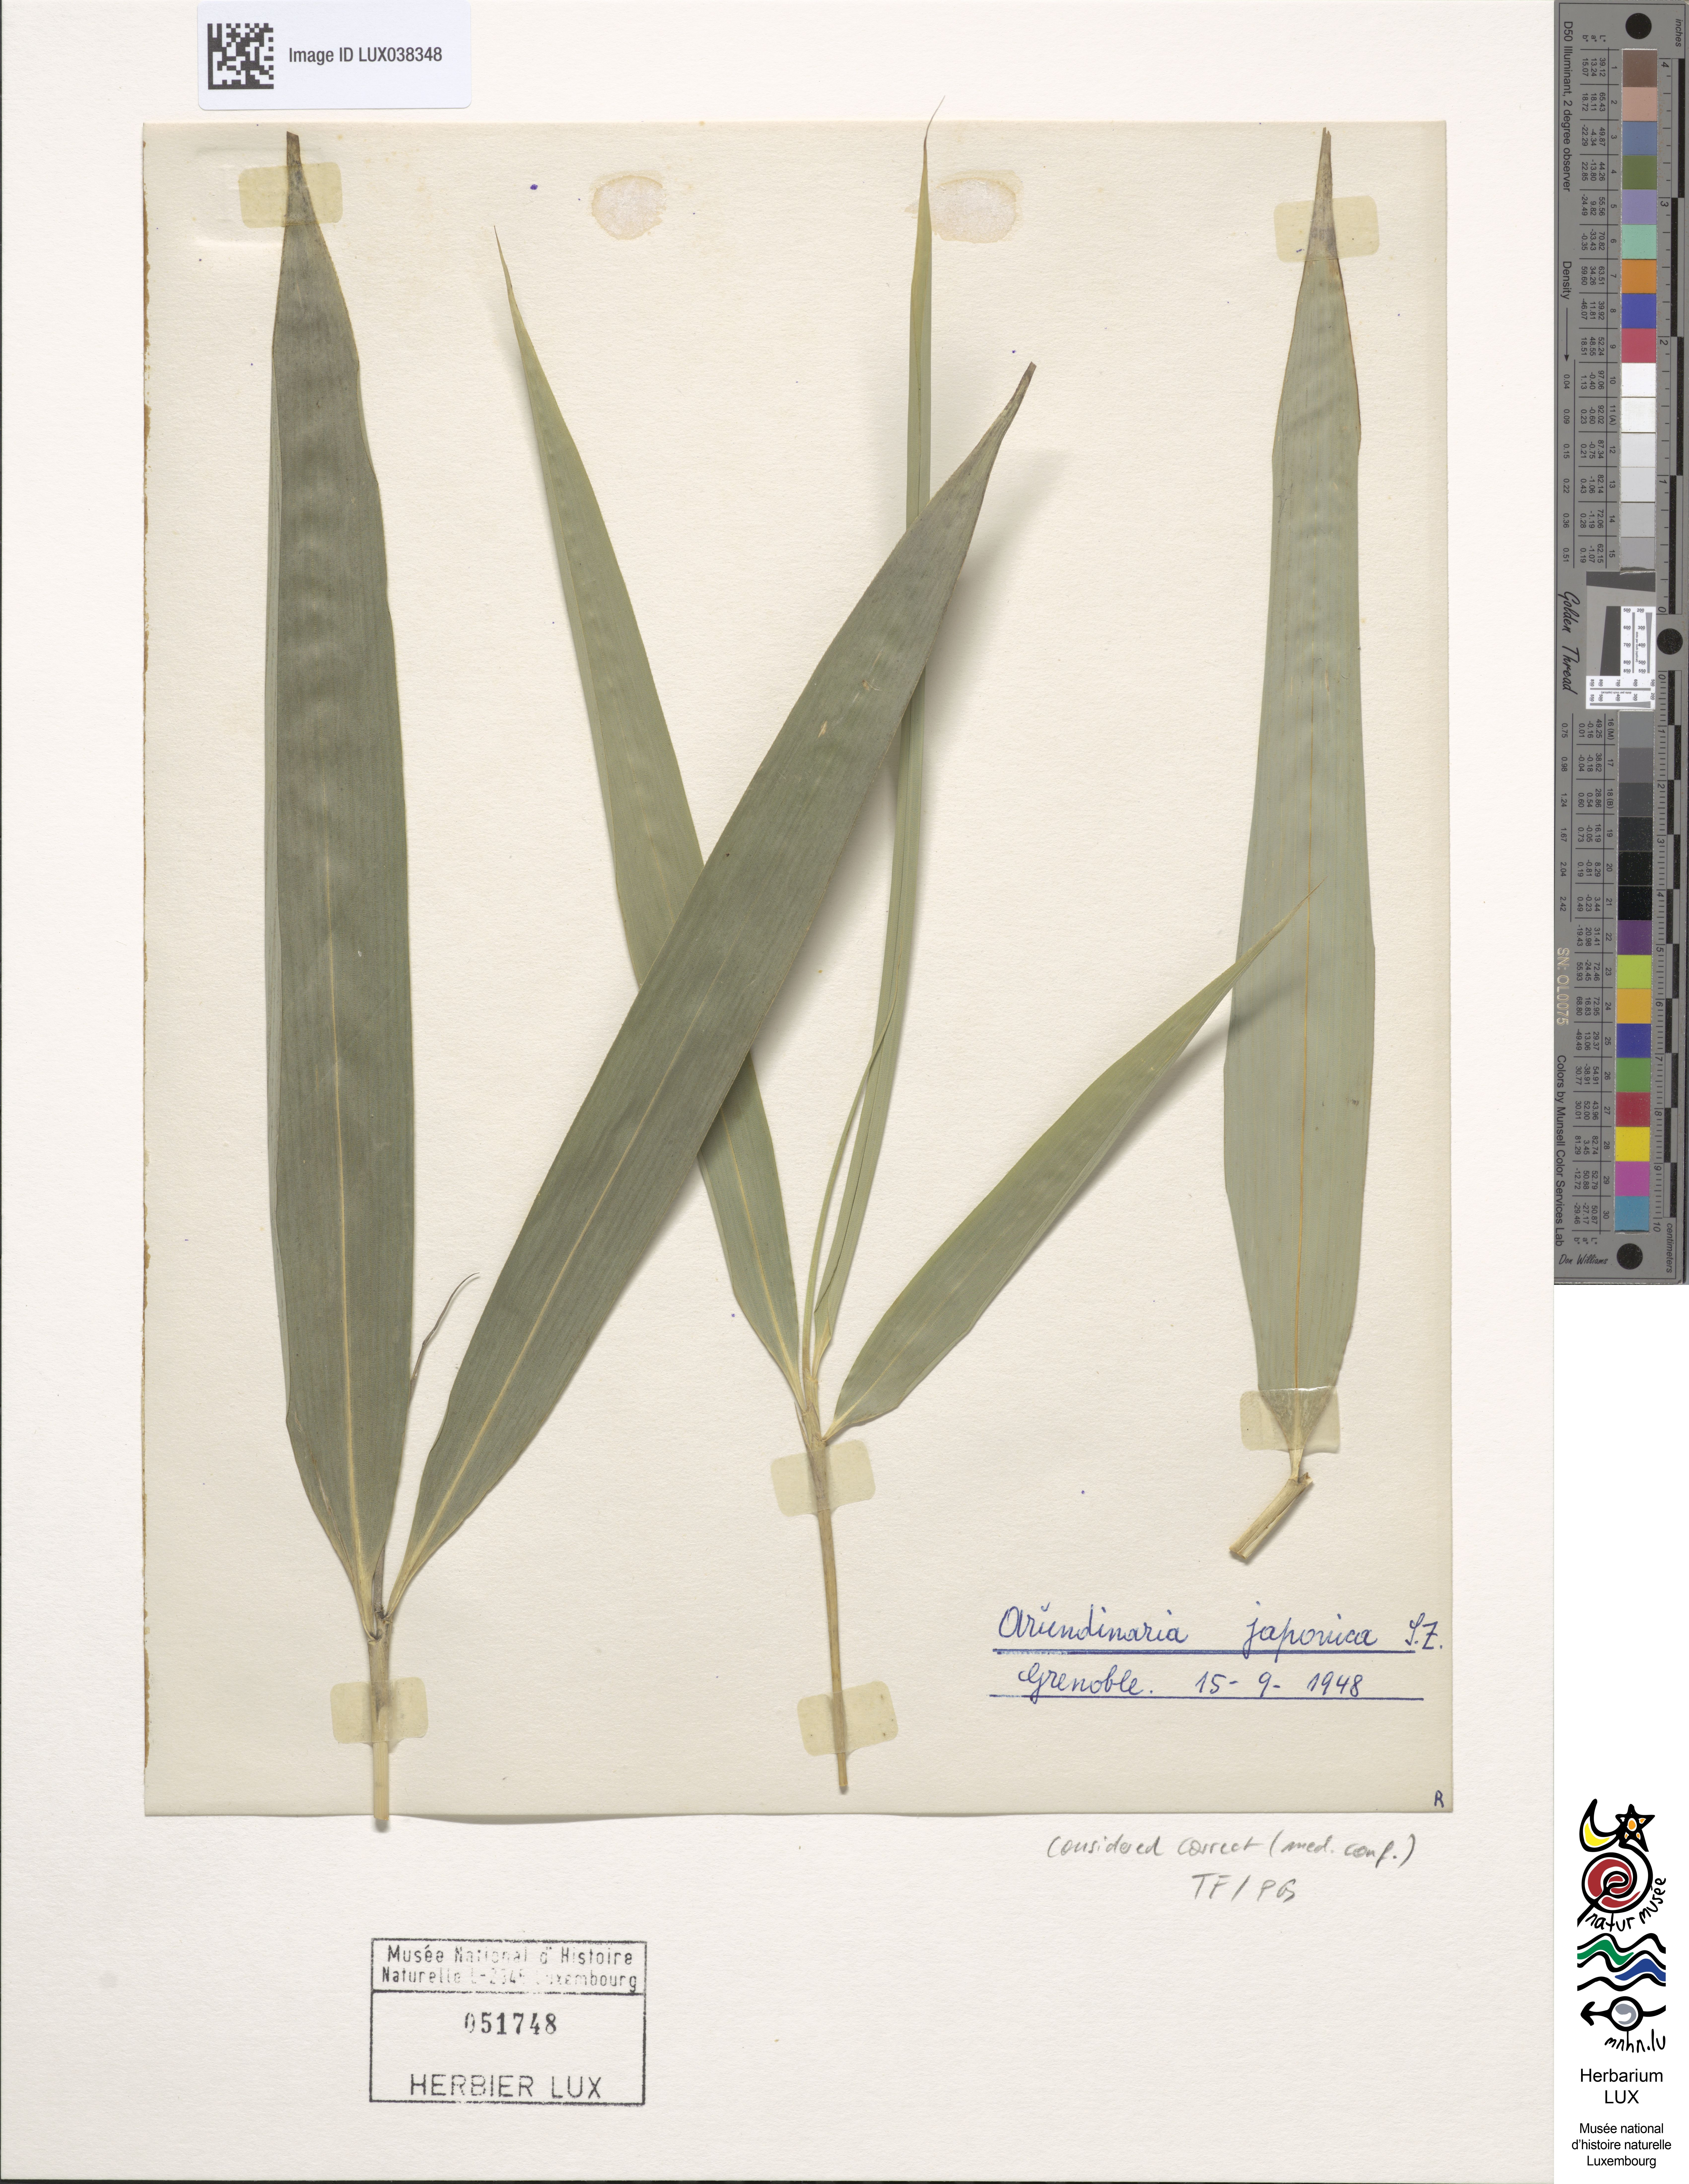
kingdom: Plantae
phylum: Tracheophyta
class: Liliopsida
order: Poales
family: Poaceae
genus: Pseudosasa
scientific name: Pseudosasa japonica
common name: Arrow bamboo
